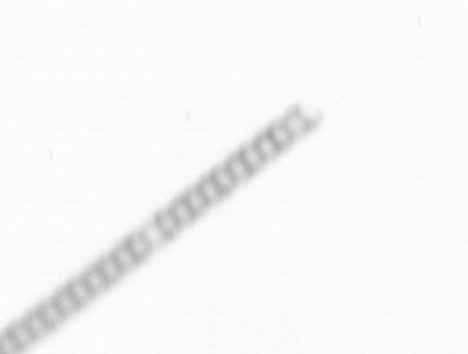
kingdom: Chromista
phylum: Ochrophyta
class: Bacillariophyceae
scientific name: Bacillariophyceae
